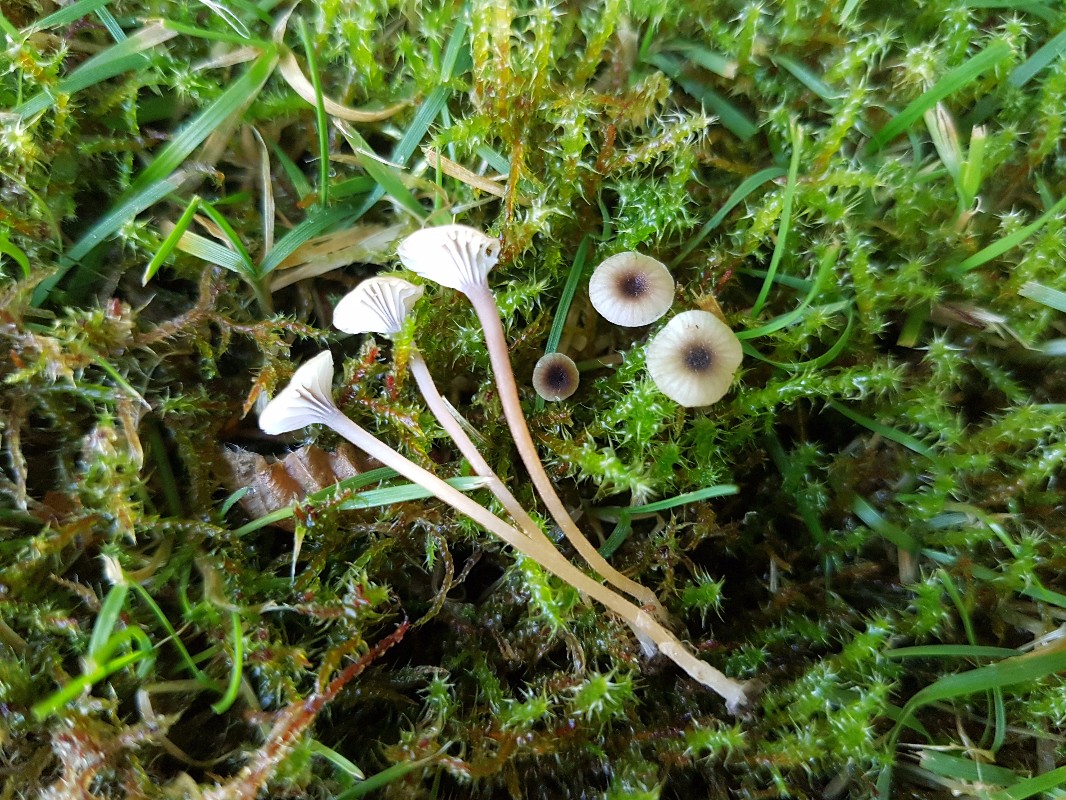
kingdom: Fungi
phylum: Basidiomycota
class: Agaricomycetes
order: Hymenochaetales
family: Rickenellaceae
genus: Rickenella
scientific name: Rickenella swartzii
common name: finstokket mosnavlehat
